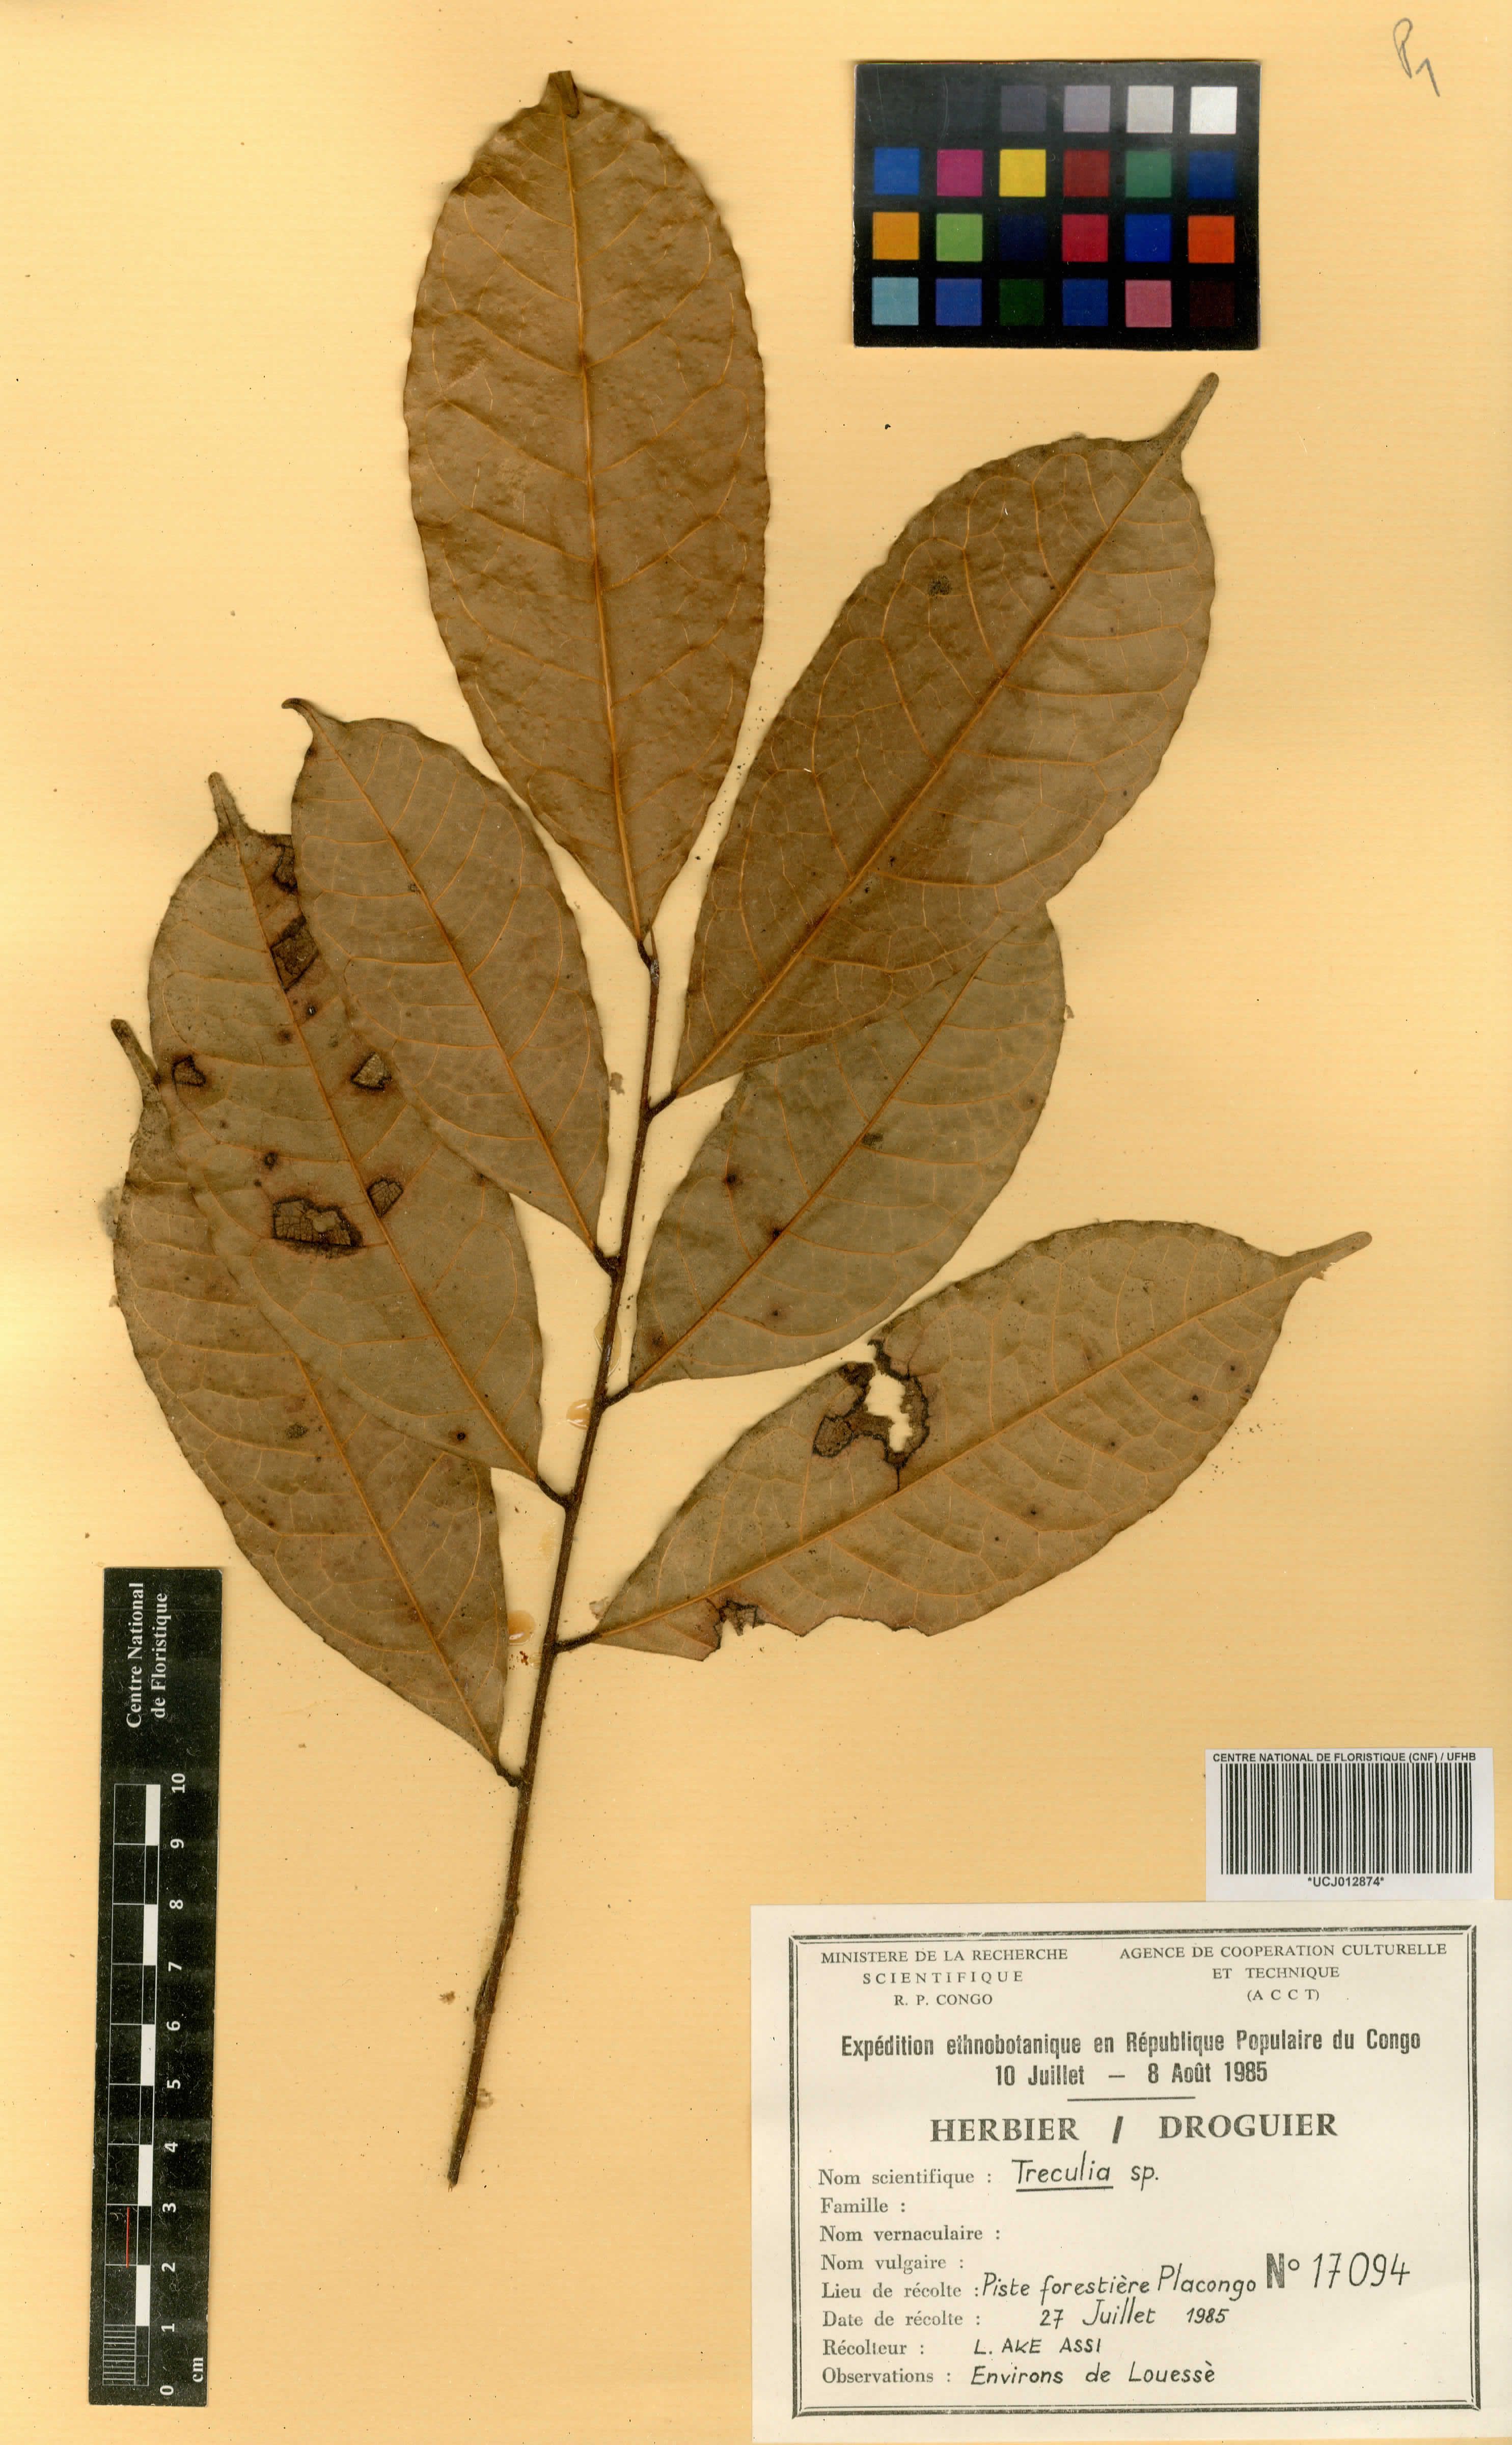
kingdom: Plantae
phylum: Tracheophyta
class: Magnoliopsida
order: Rosales
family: Moraceae
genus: Treculia
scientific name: Treculia
